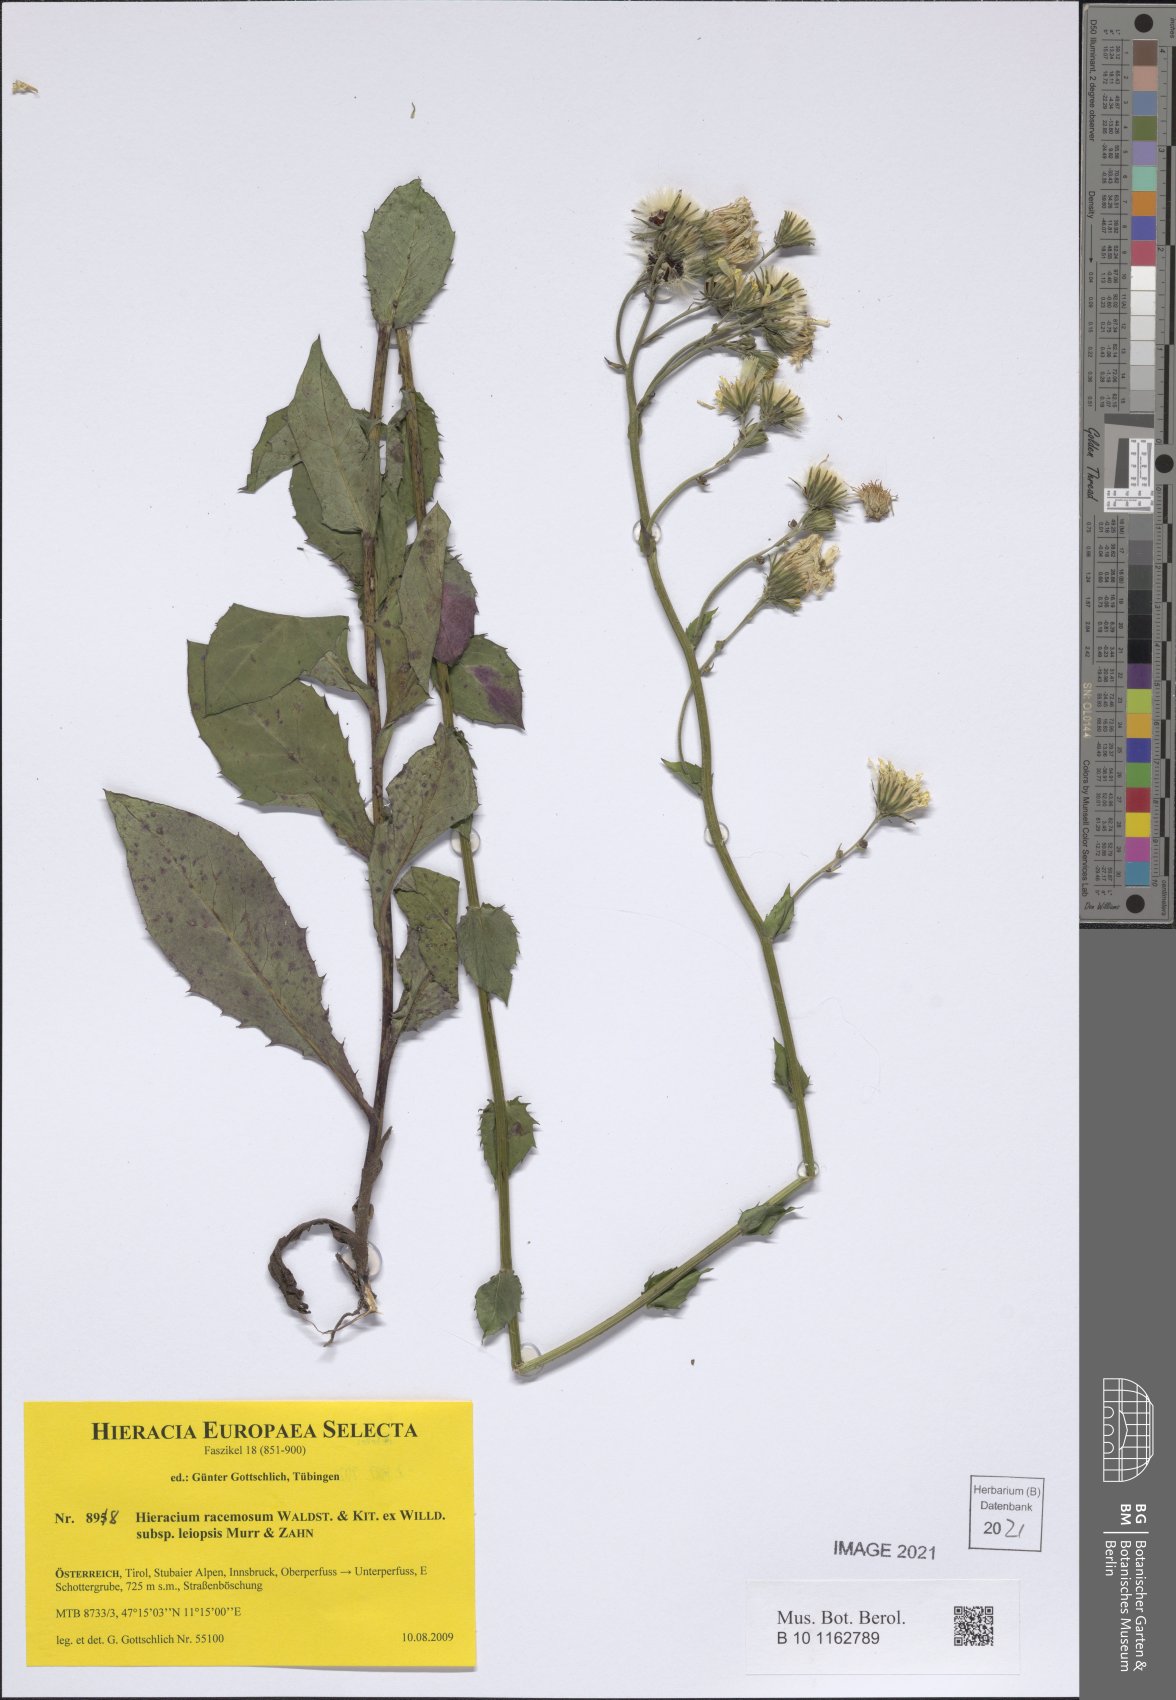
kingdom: Plantae
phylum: Tracheophyta
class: Magnoliopsida
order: Asterales
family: Asteraceae
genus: Hieracium
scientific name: Hieracium racemosum
